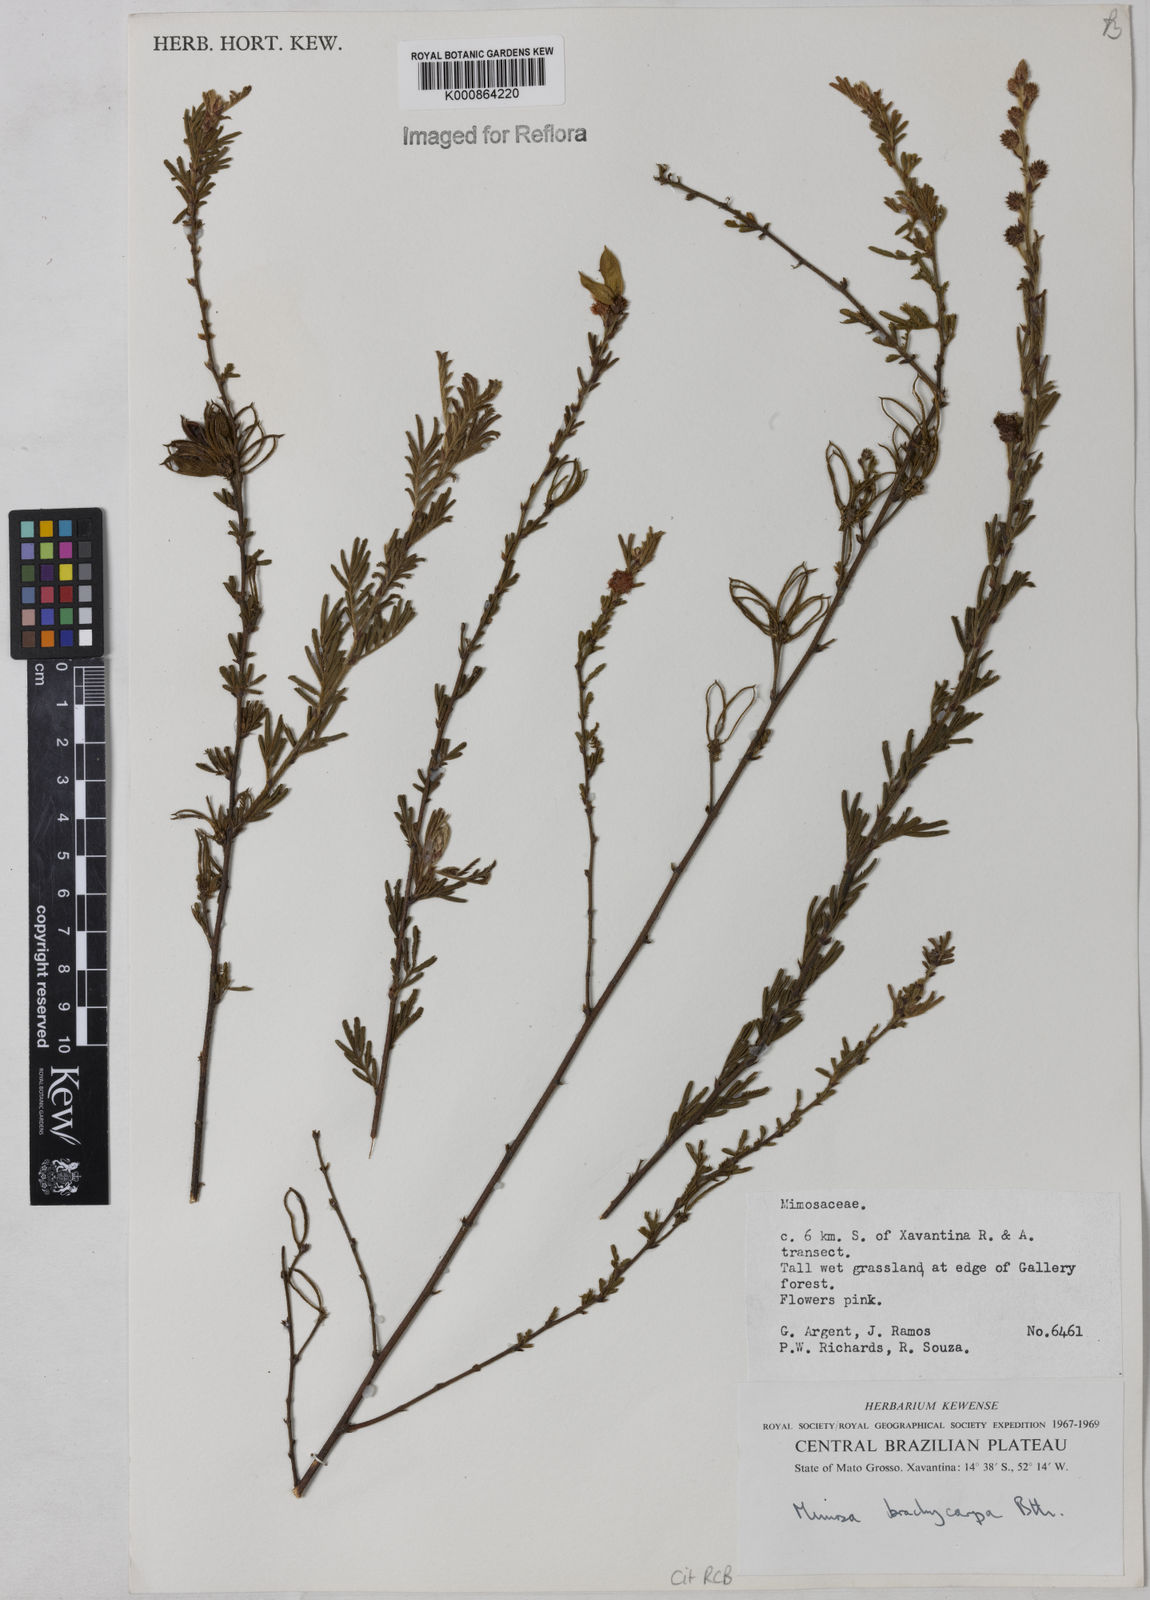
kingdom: Plantae
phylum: Tracheophyta
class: Magnoliopsida
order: Fabales
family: Fabaceae
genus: Mimosa
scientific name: Mimosa brachycarpa
